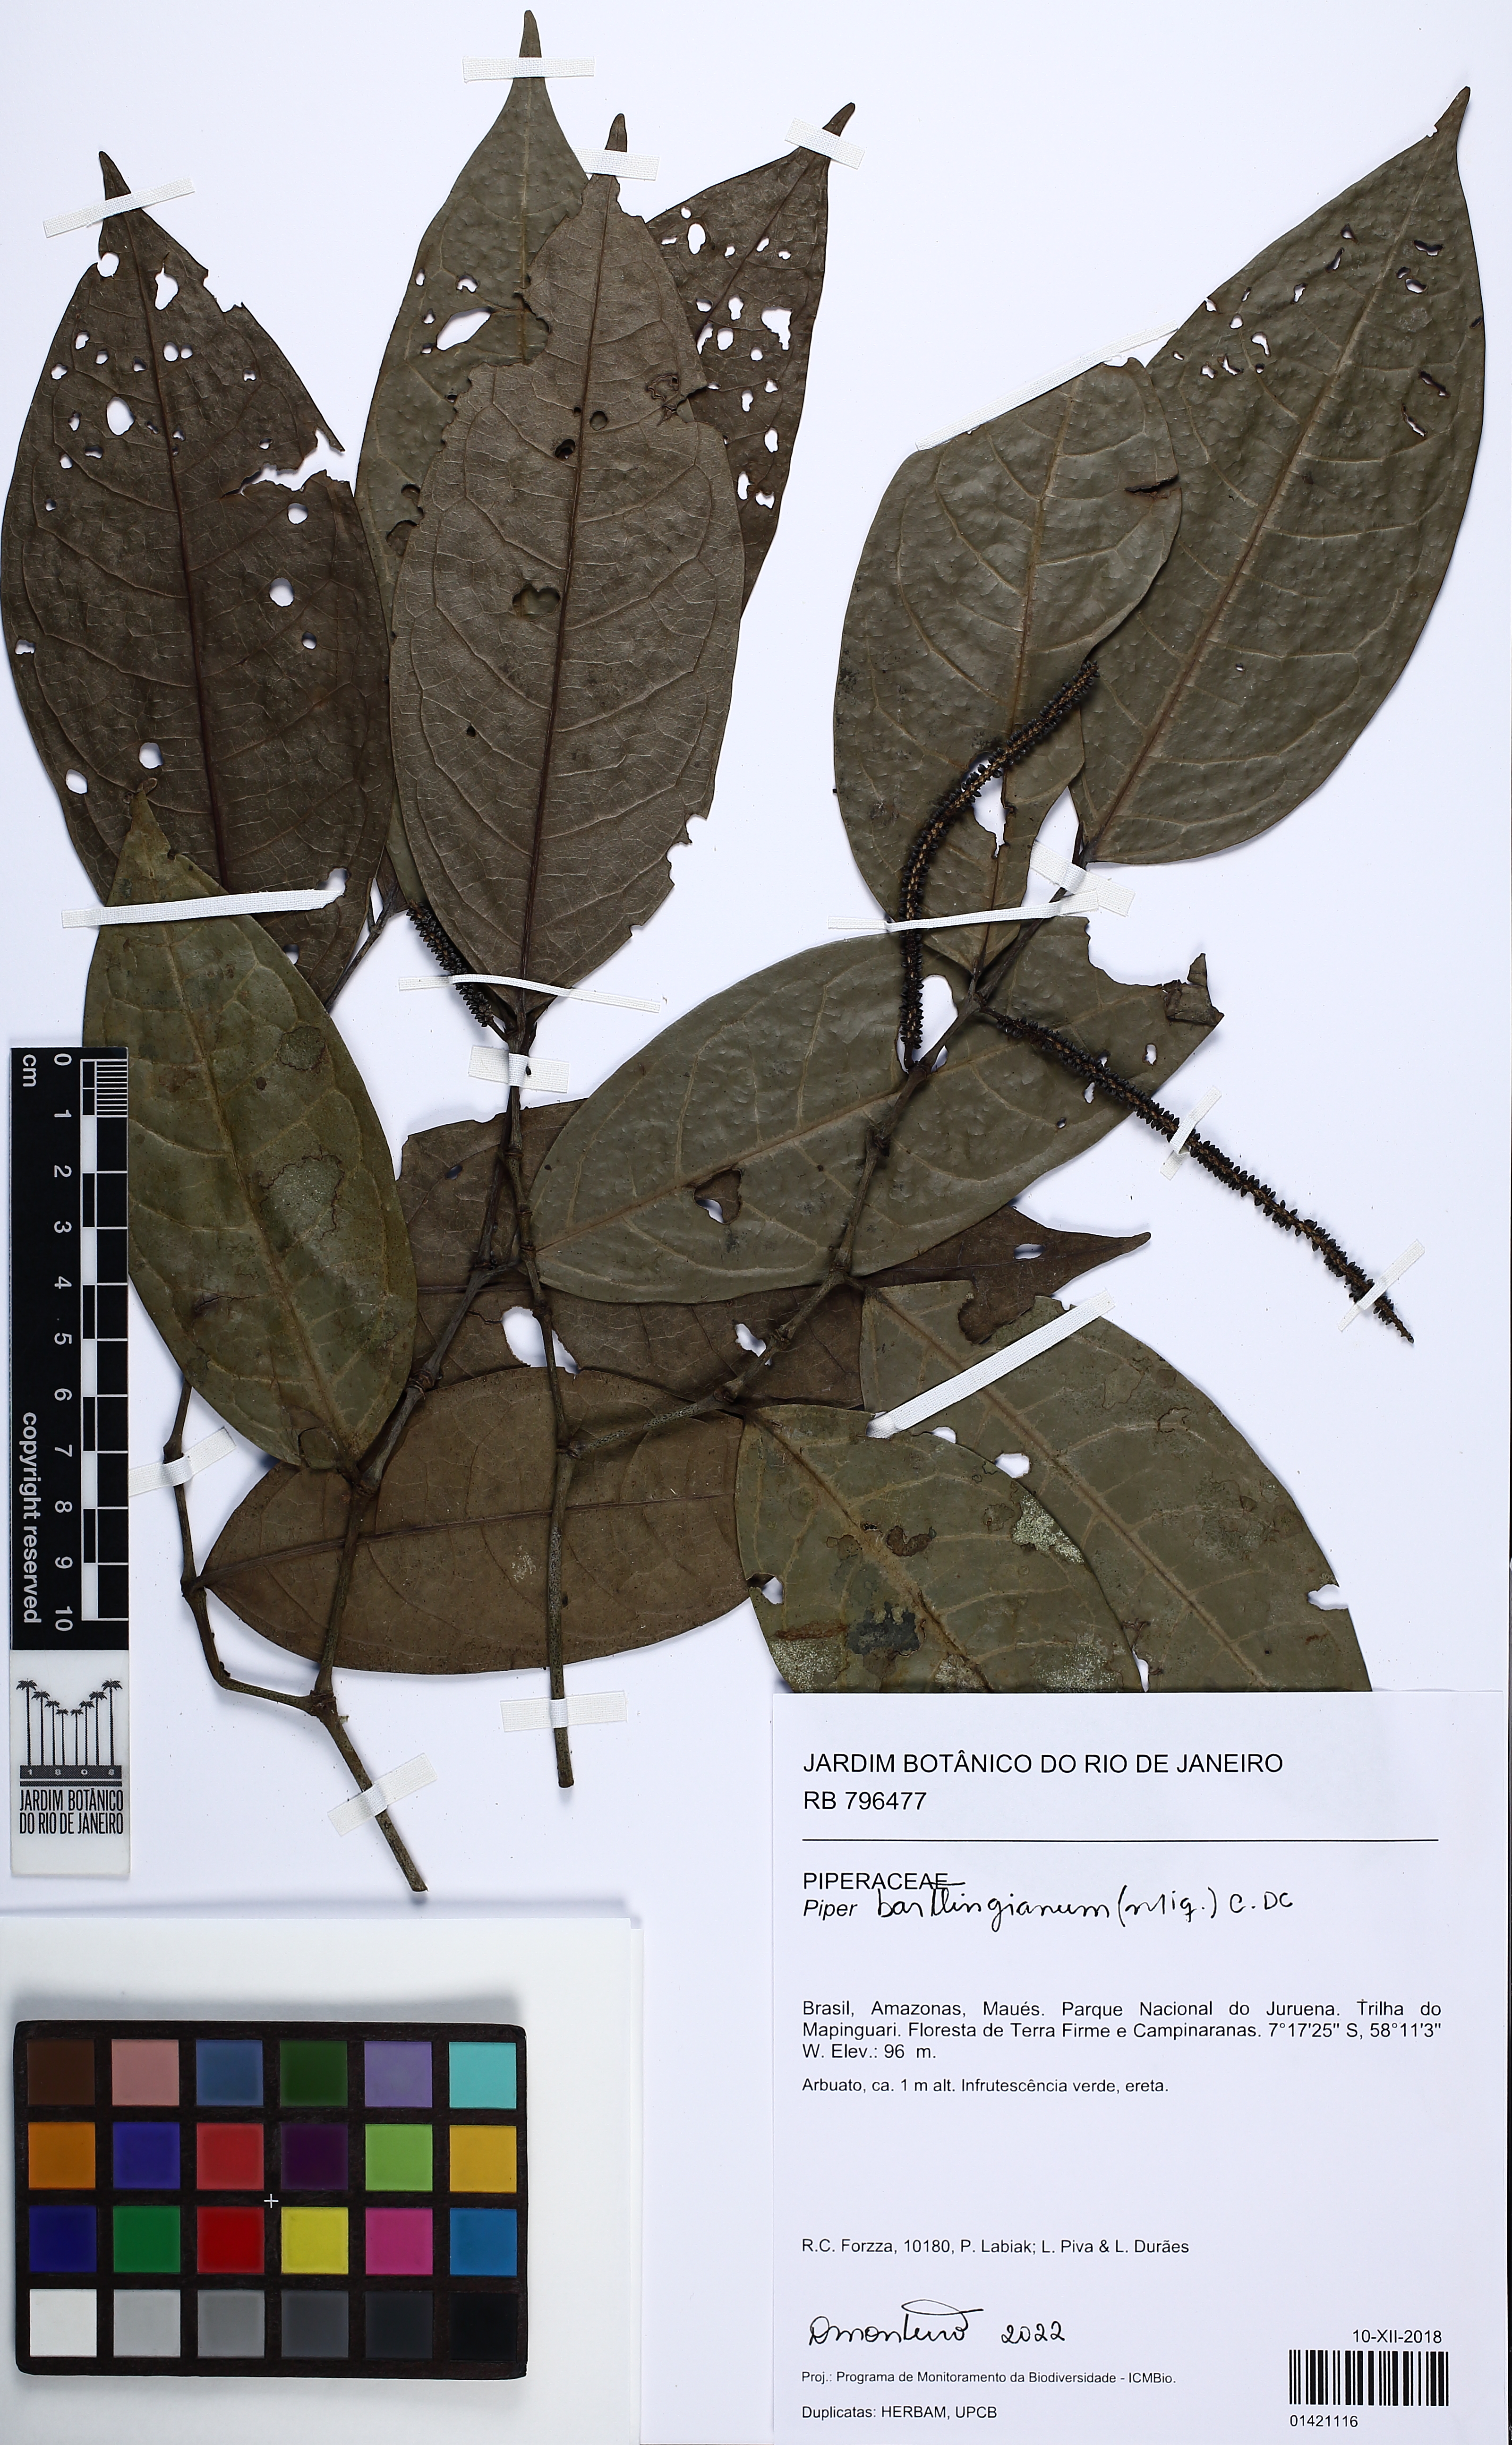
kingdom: Plantae
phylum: Tracheophyta
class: Magnoliopsida
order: Piperales
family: Piperaceae
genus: Piper
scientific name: Piper bartlingianum
